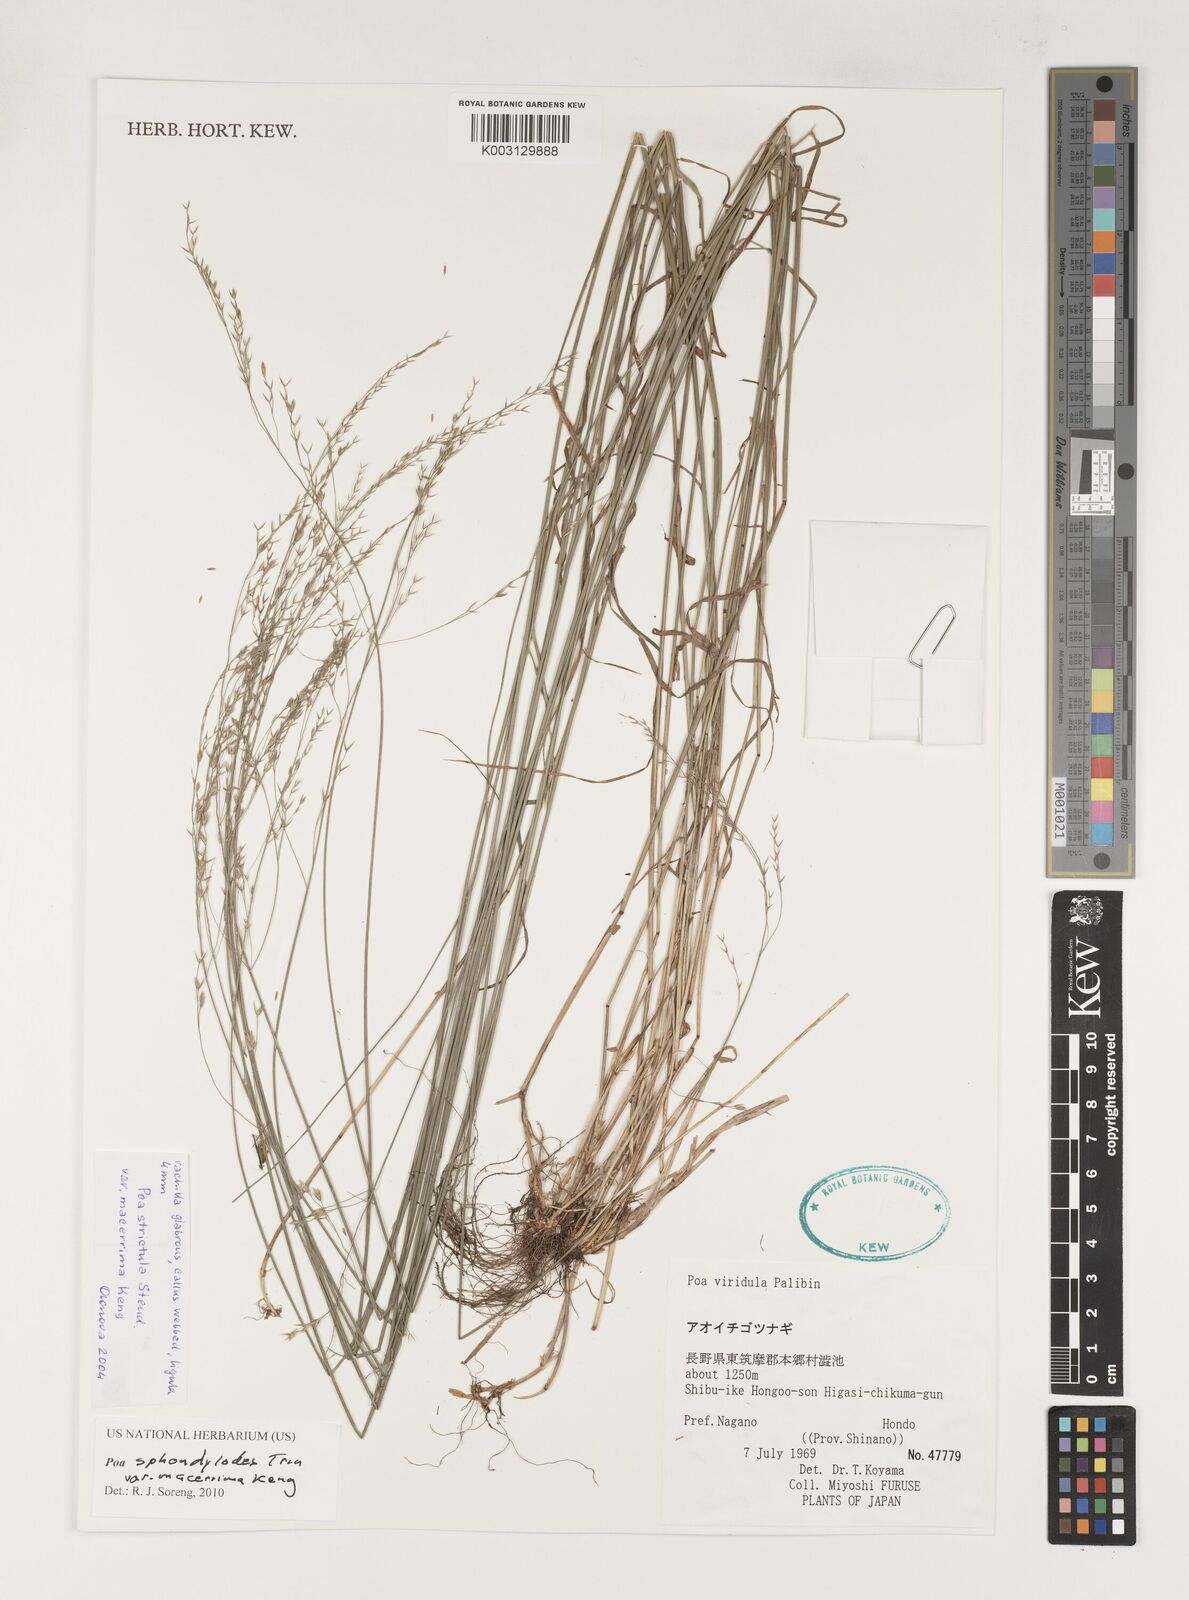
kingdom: Plantae
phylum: Tracheophyta
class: Liliopsida
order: Poales
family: Poaceae
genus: Poa
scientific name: Poa sphondylodes
